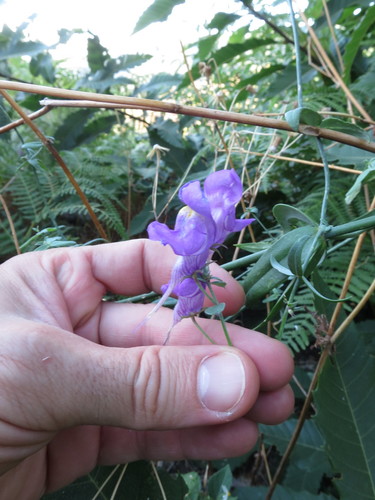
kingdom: Plantae
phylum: Tracheophyta
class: Magnoliopsida
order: Lamiales
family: Plantaginaceae
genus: Linaria
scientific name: Linaria triornithophora
